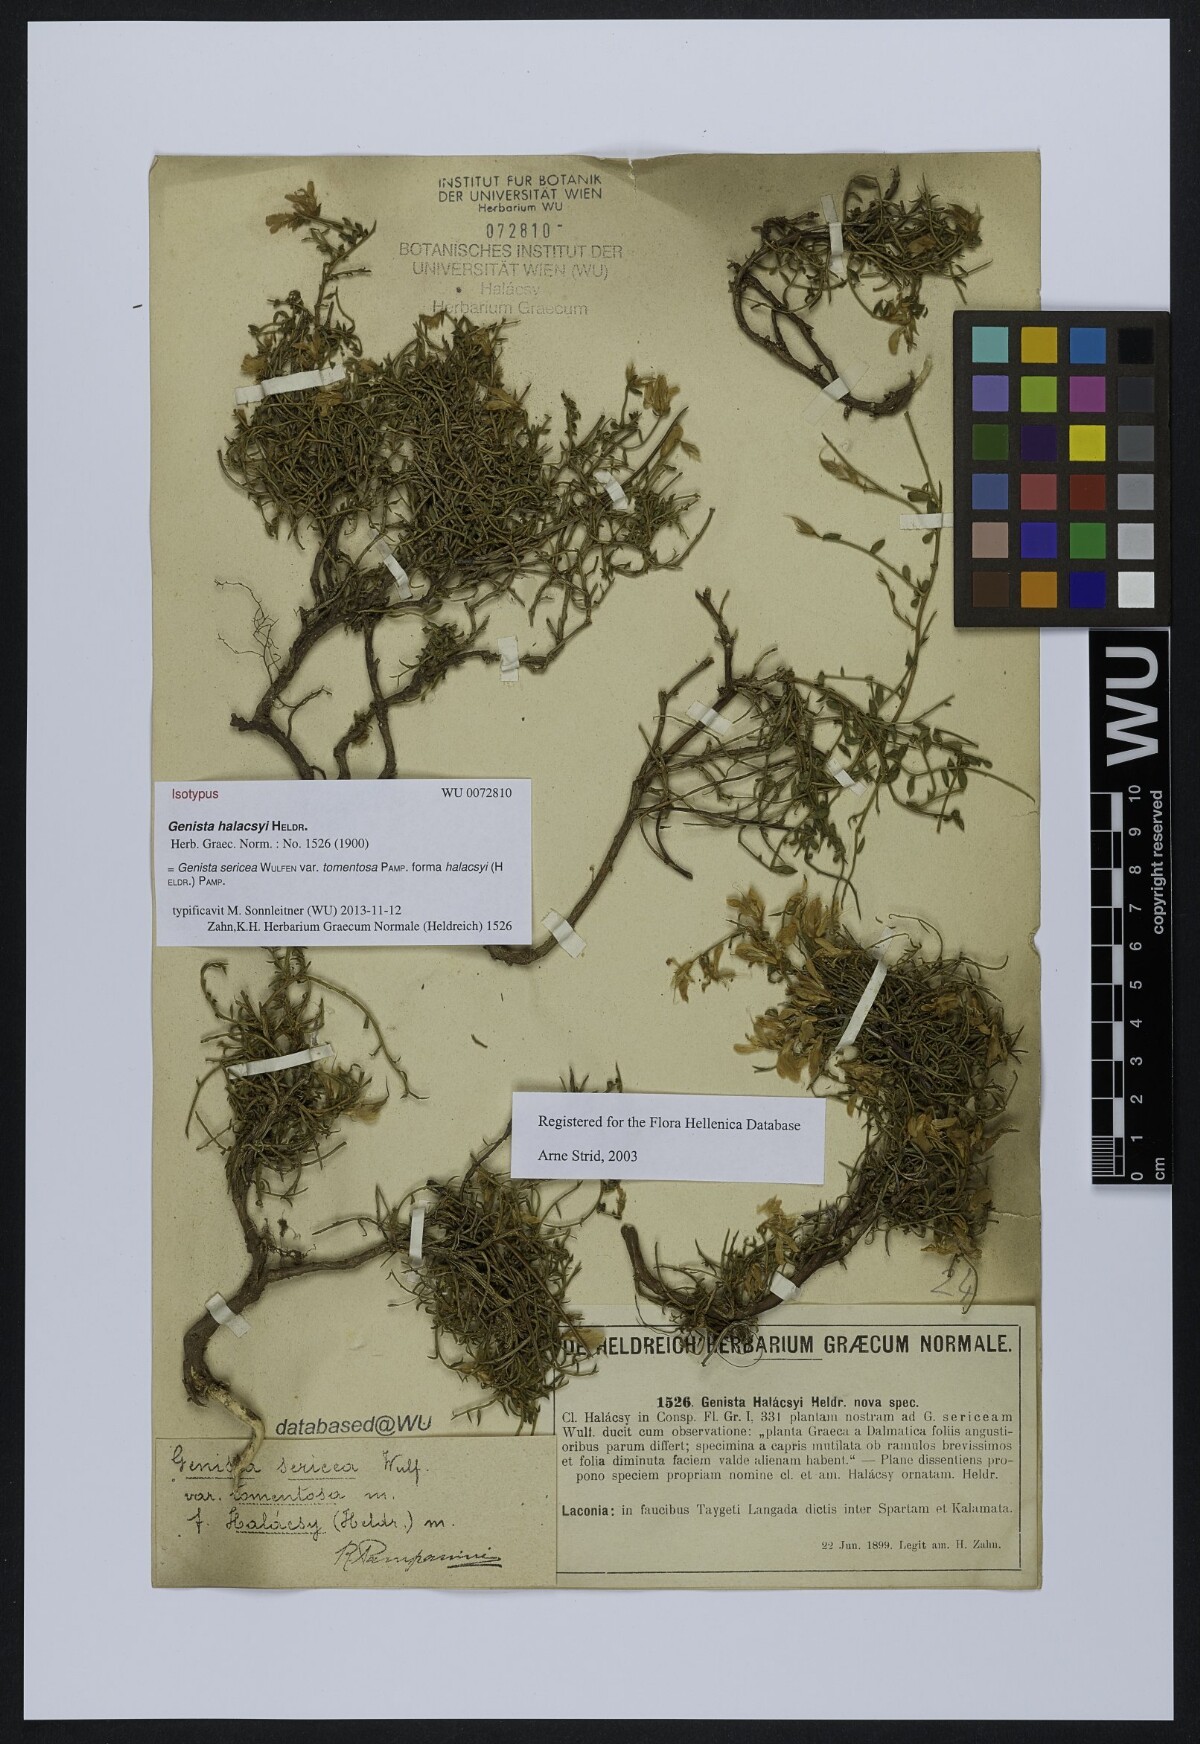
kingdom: Plantae
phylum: Tracheophyta
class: Magnoliopsida
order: Fabales
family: Fabaceae
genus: Genista
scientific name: Genista halacsyi
